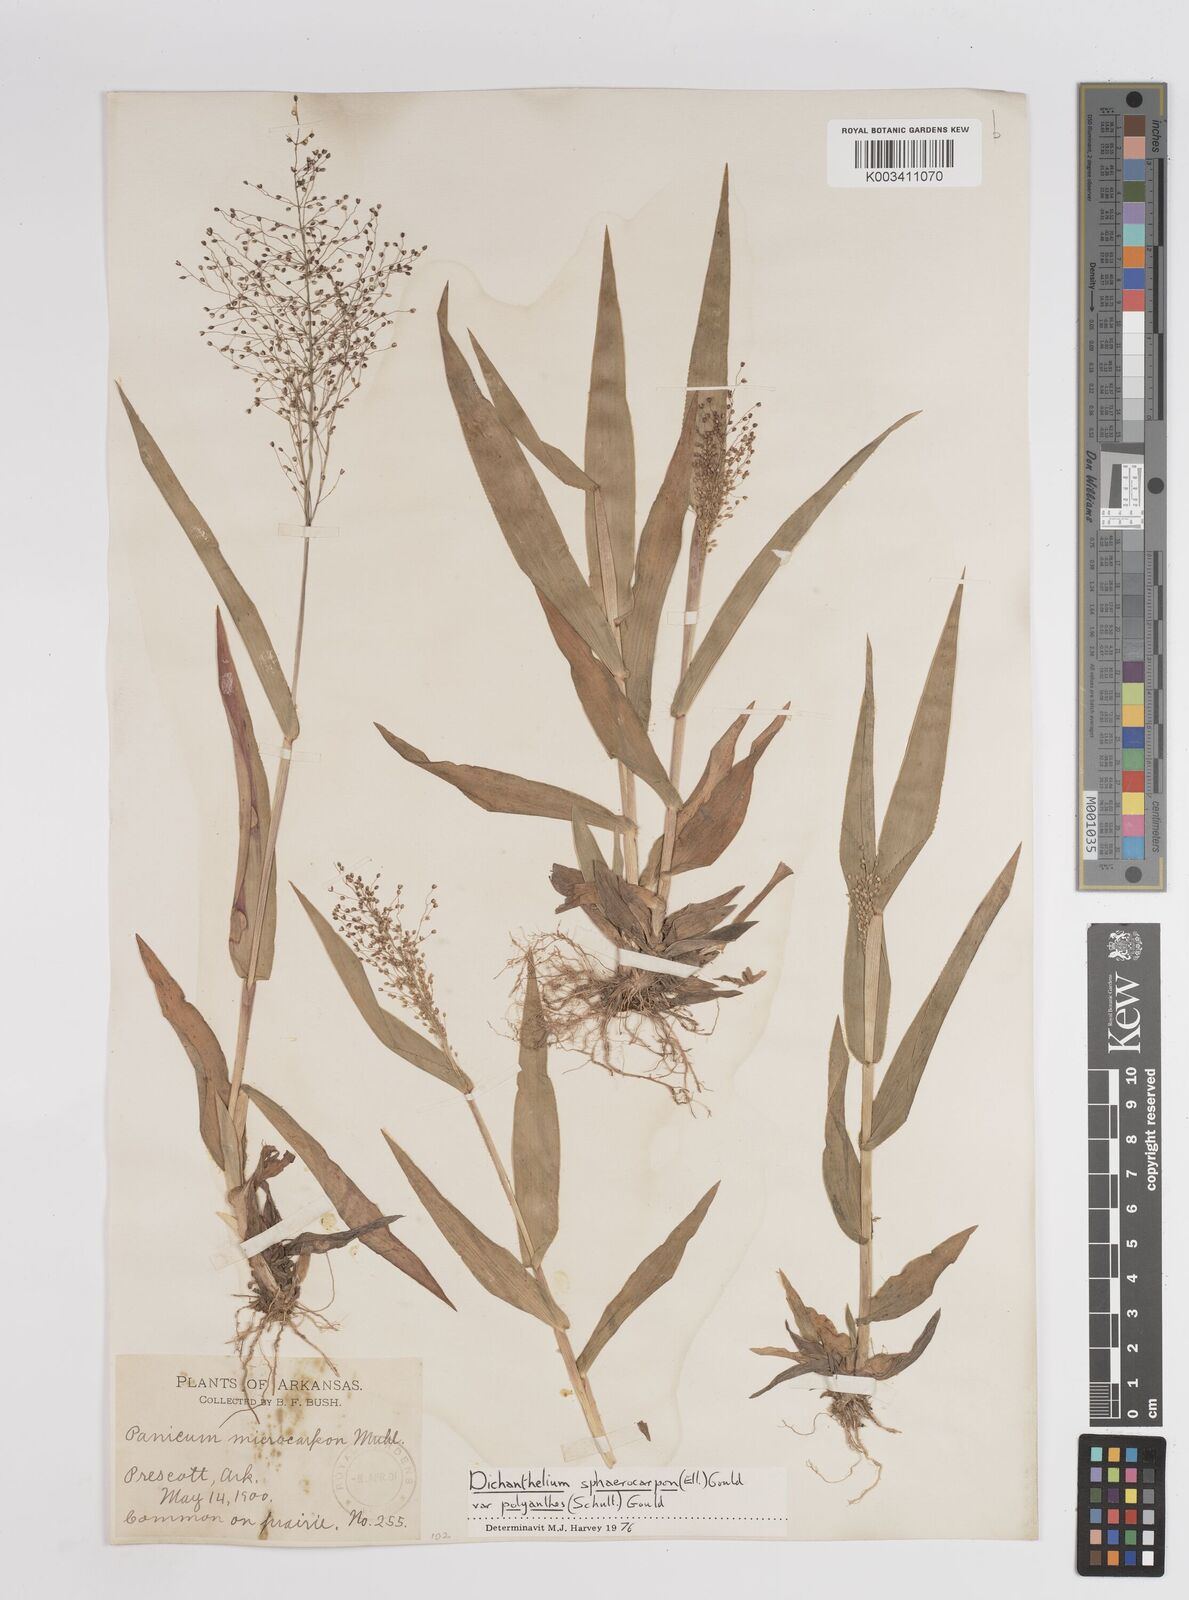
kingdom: Plantae
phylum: Tracheophyta
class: Liliopsida
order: Poales
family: Poaceae
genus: Dichanthelium
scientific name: Dichanthelium polyanthes
